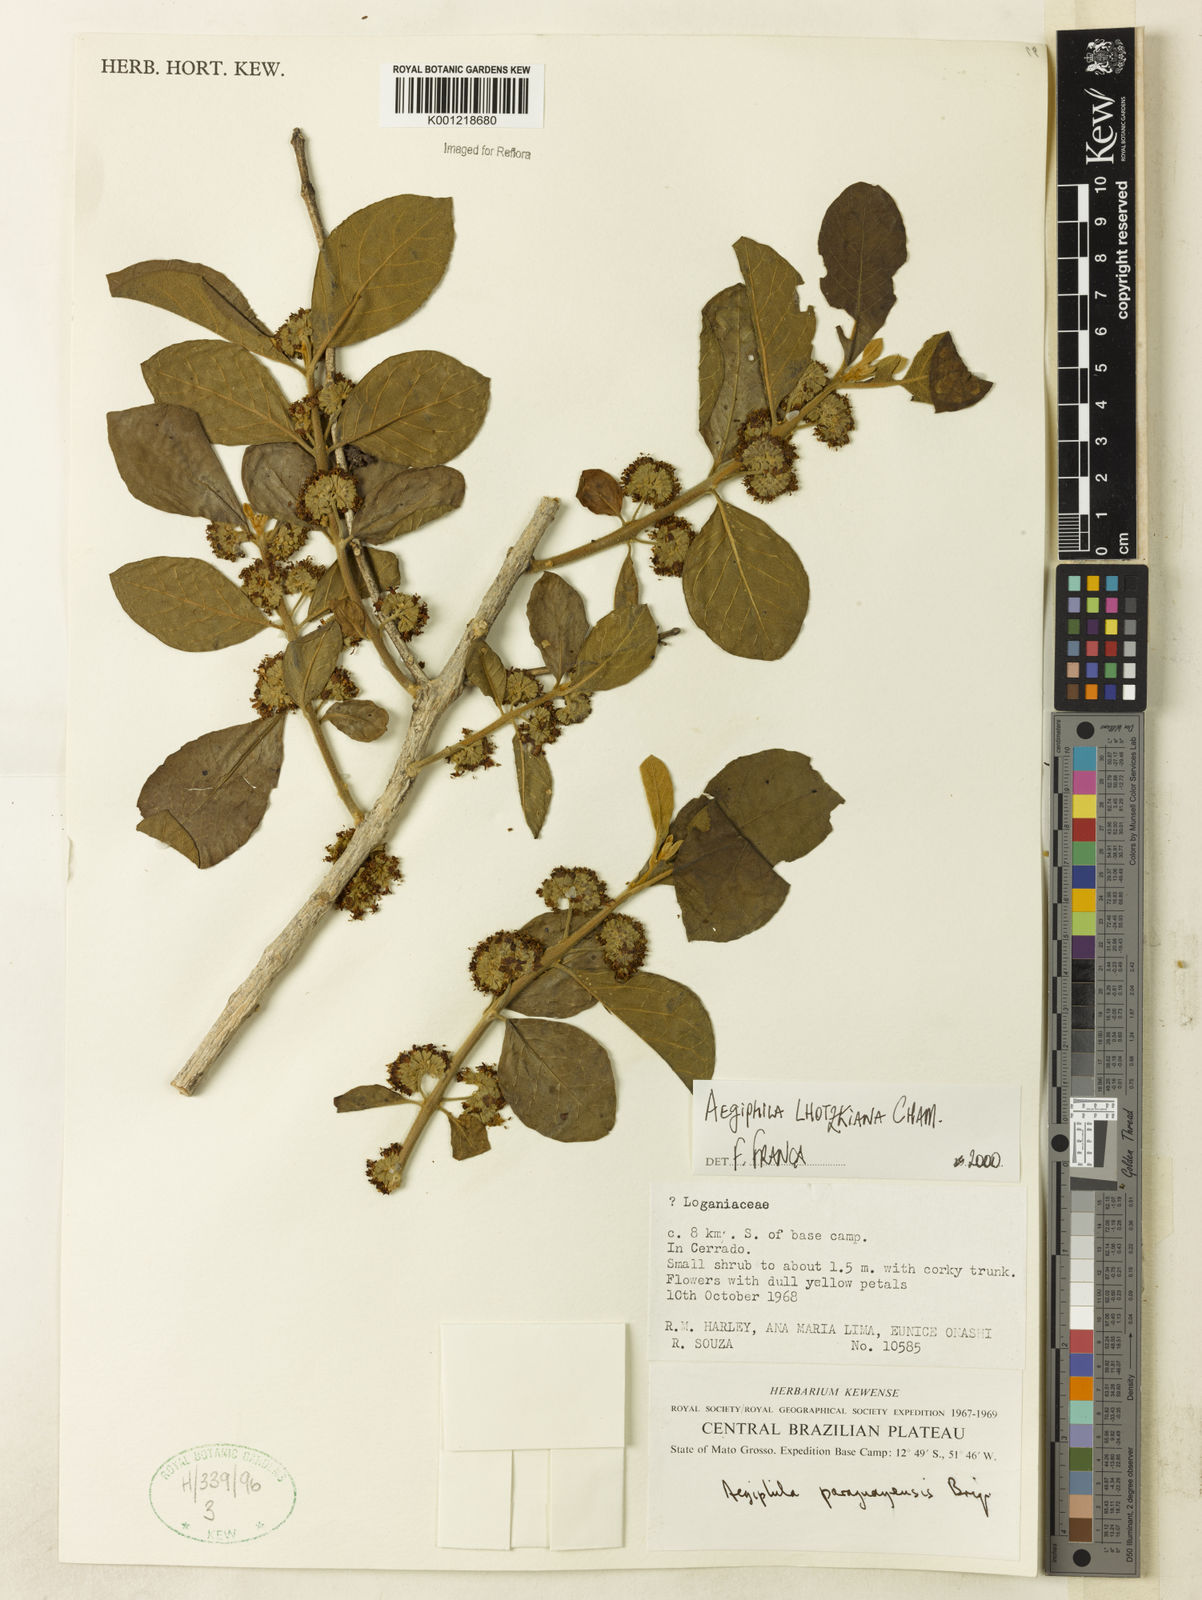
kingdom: Plantae
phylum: Tracheophyta
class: Magnoliopsida
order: Lamiales
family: Lamiaceae
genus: Aegiphila
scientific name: Aegiphila verticillata
